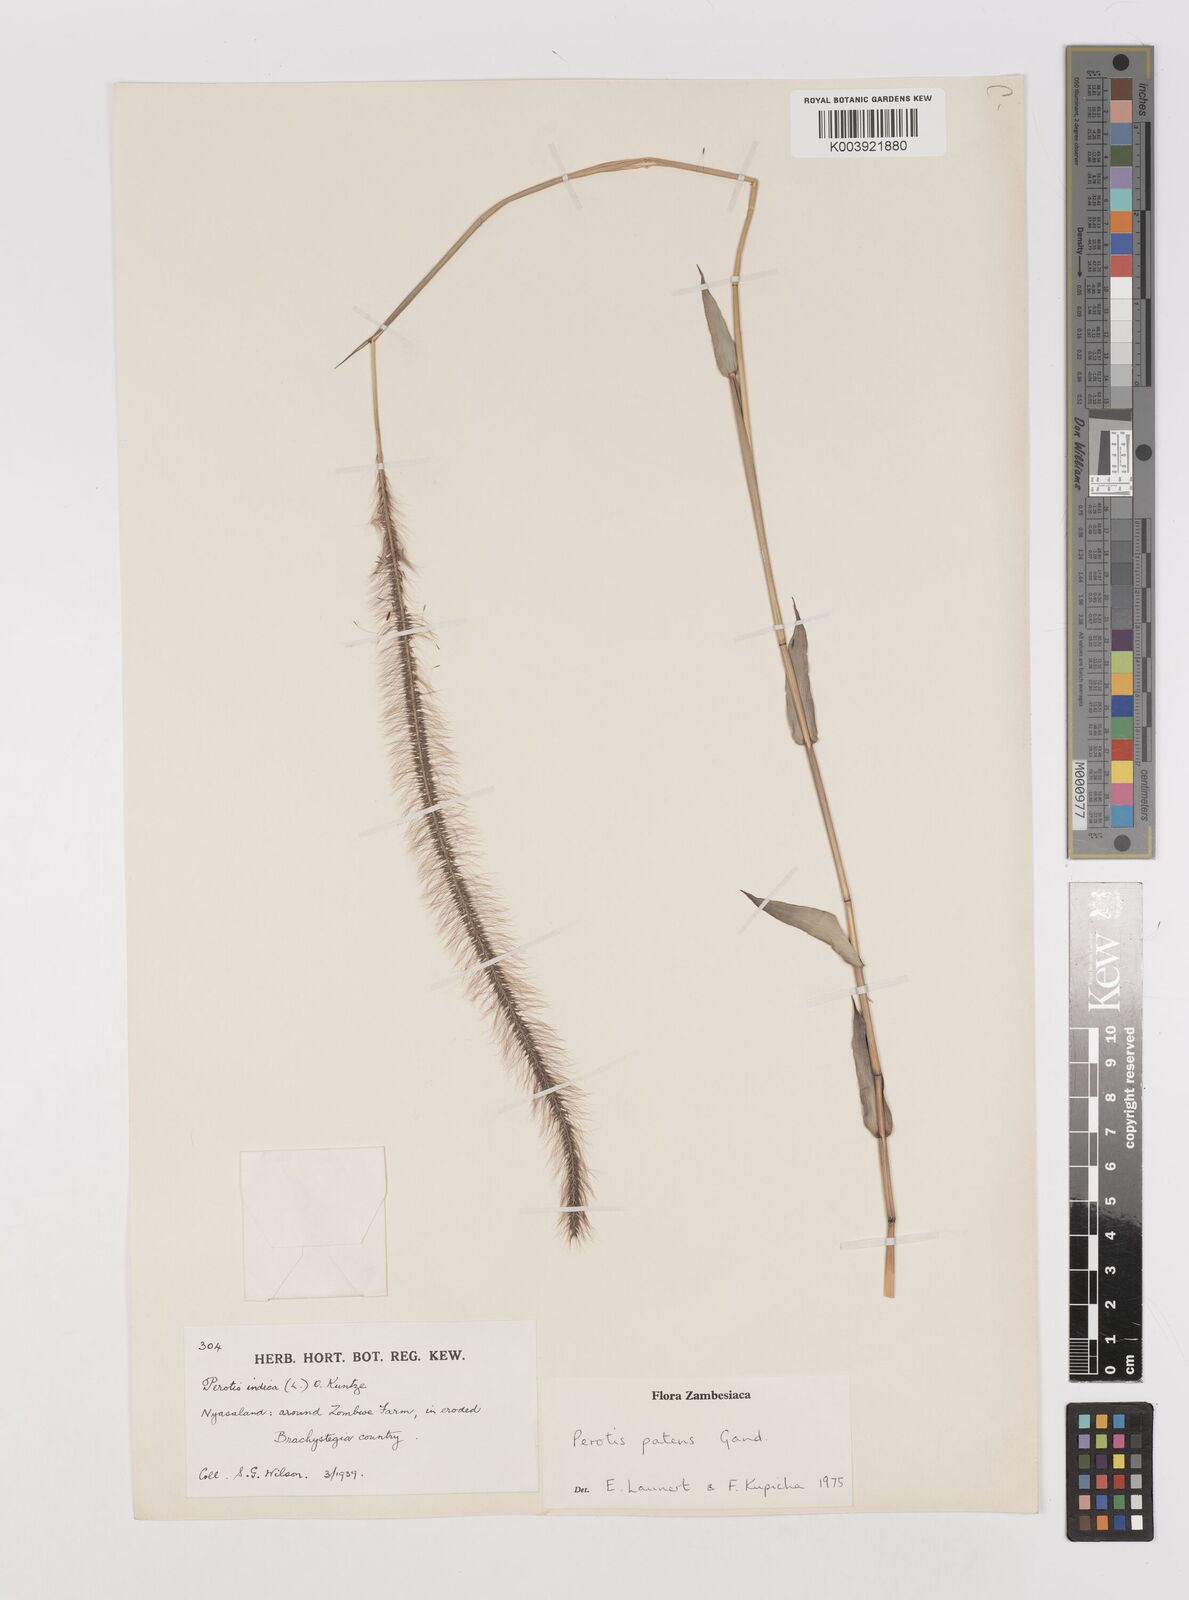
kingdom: Plantae
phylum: Tracheophyta
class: Liliopsida
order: Poales
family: Poaceae
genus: Perotis
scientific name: Perotis patens
